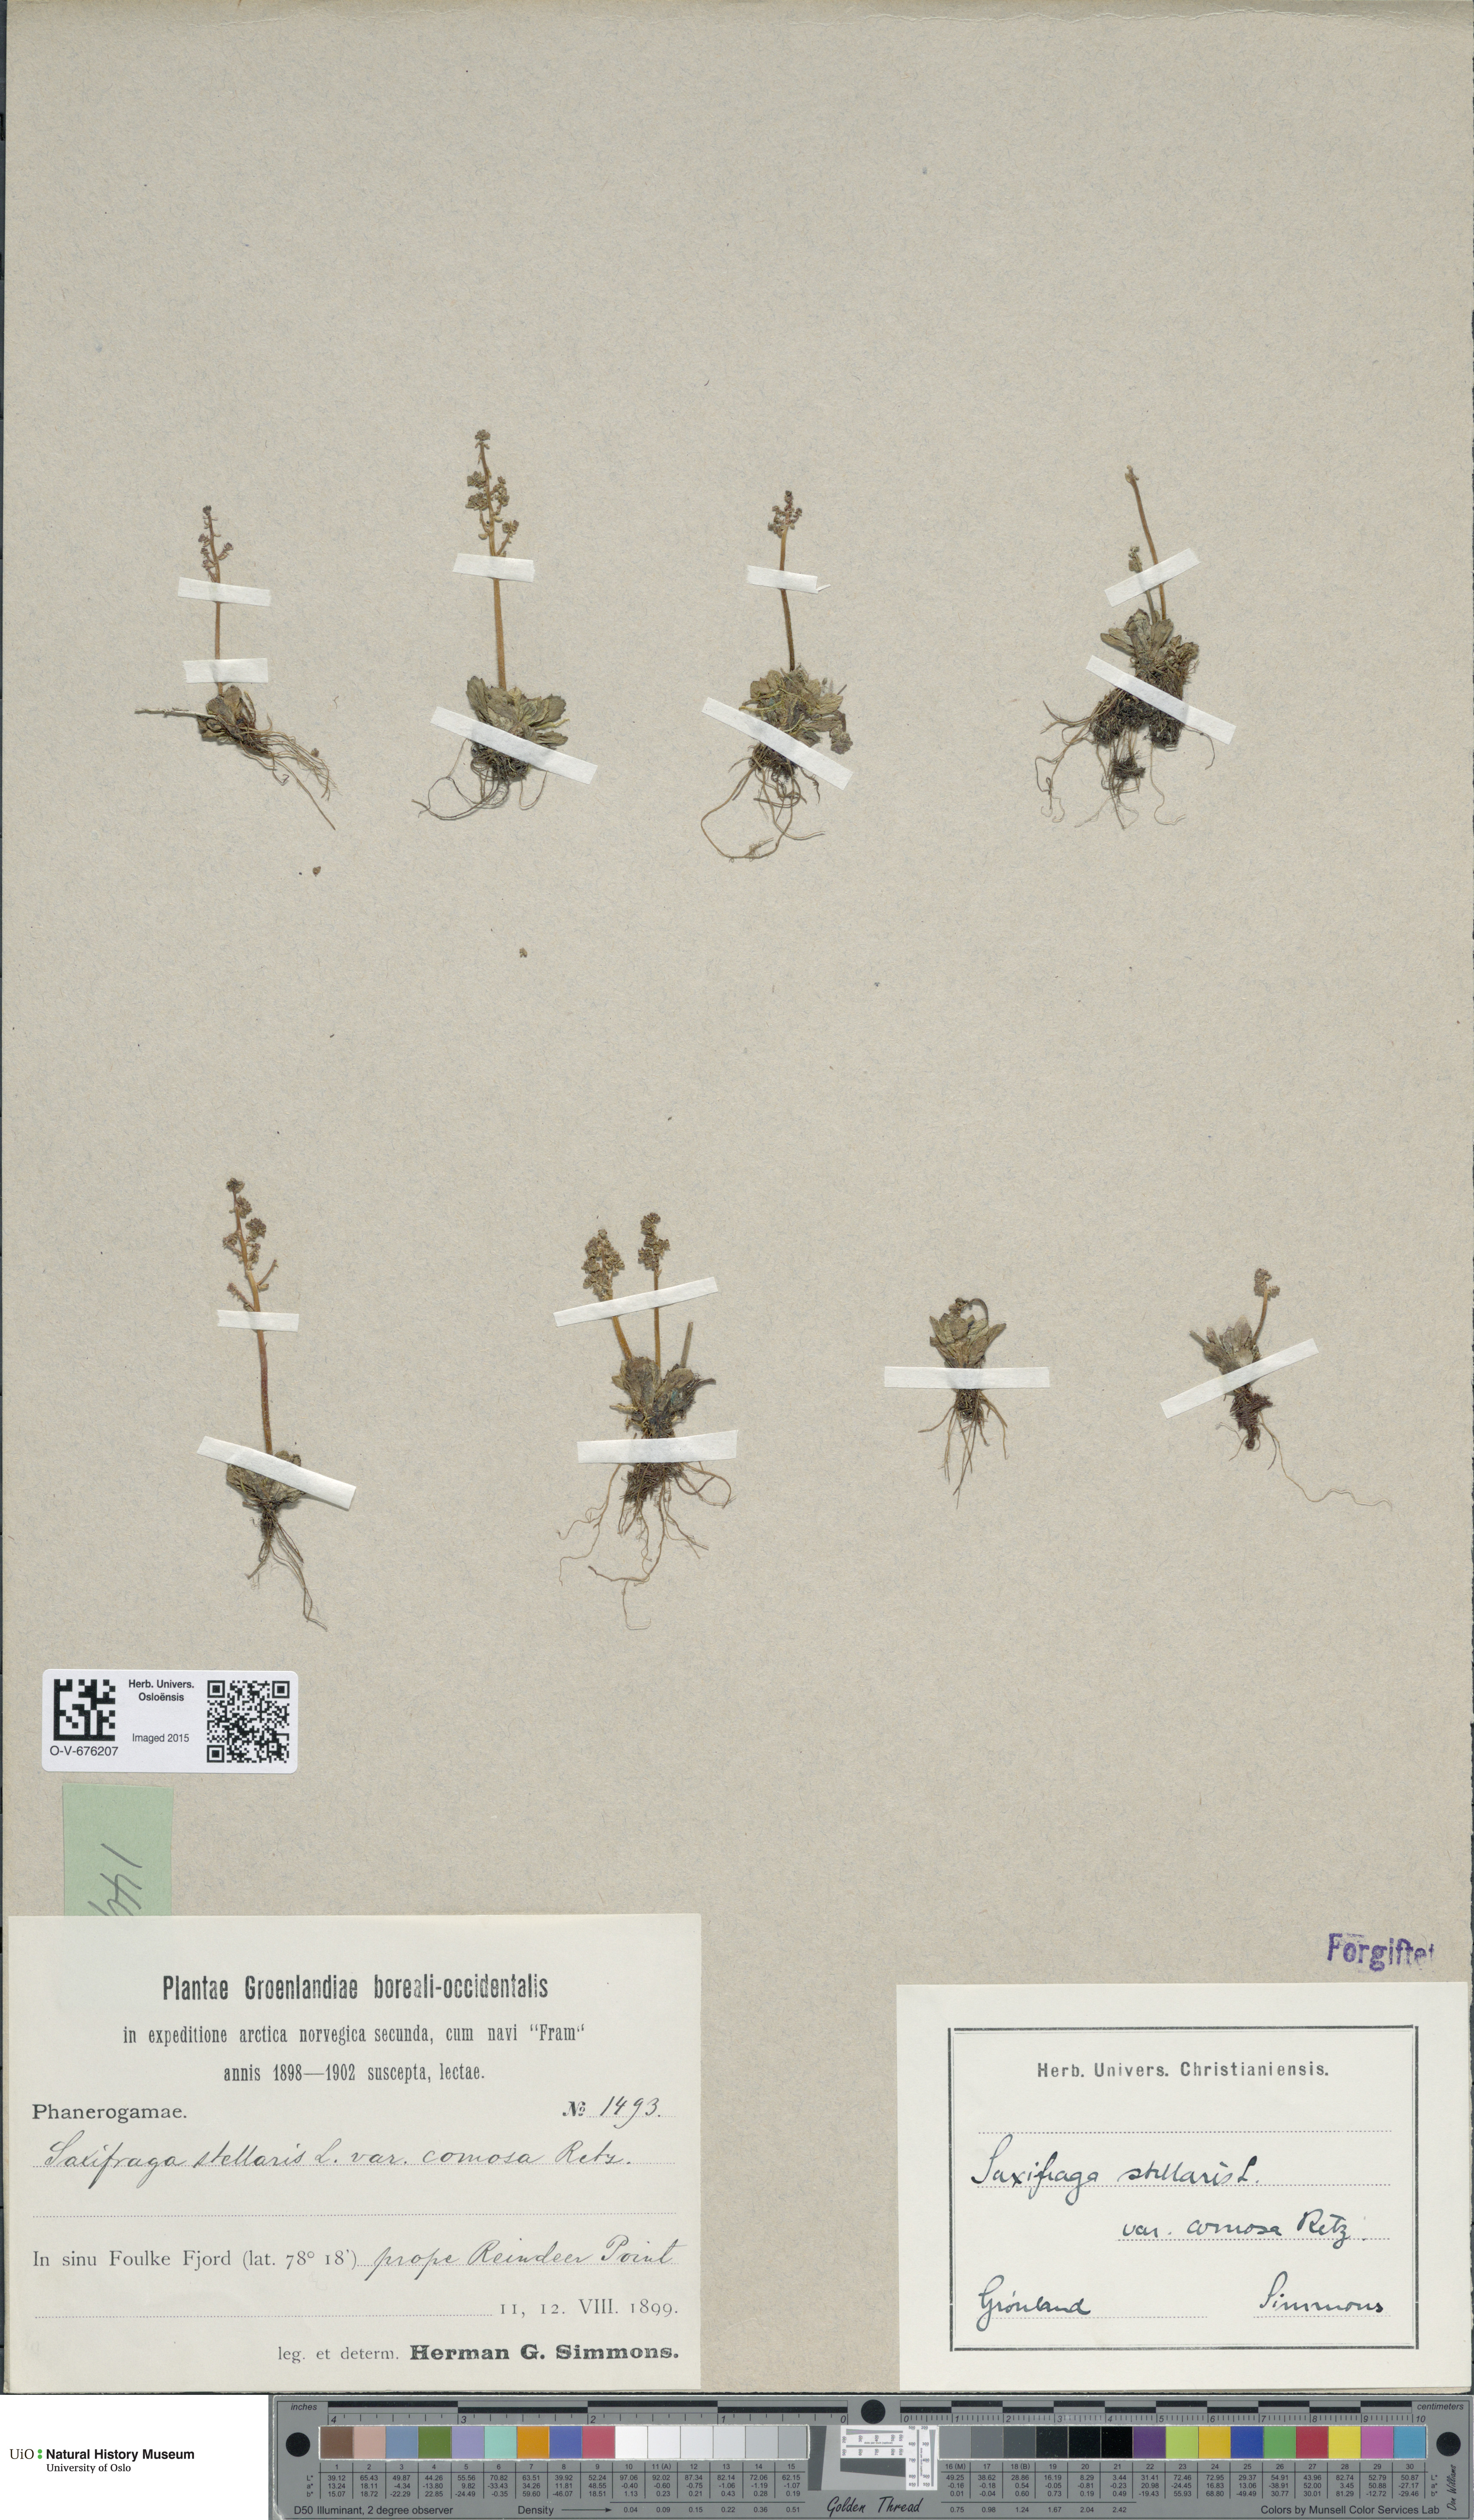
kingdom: Plantae
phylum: Tracheophyta
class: Magnoliopsida
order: Saxifragales
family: Saxifragaceae
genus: Micranthes
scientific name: Micranthes foliolosa
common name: Leafystem saxifrage
